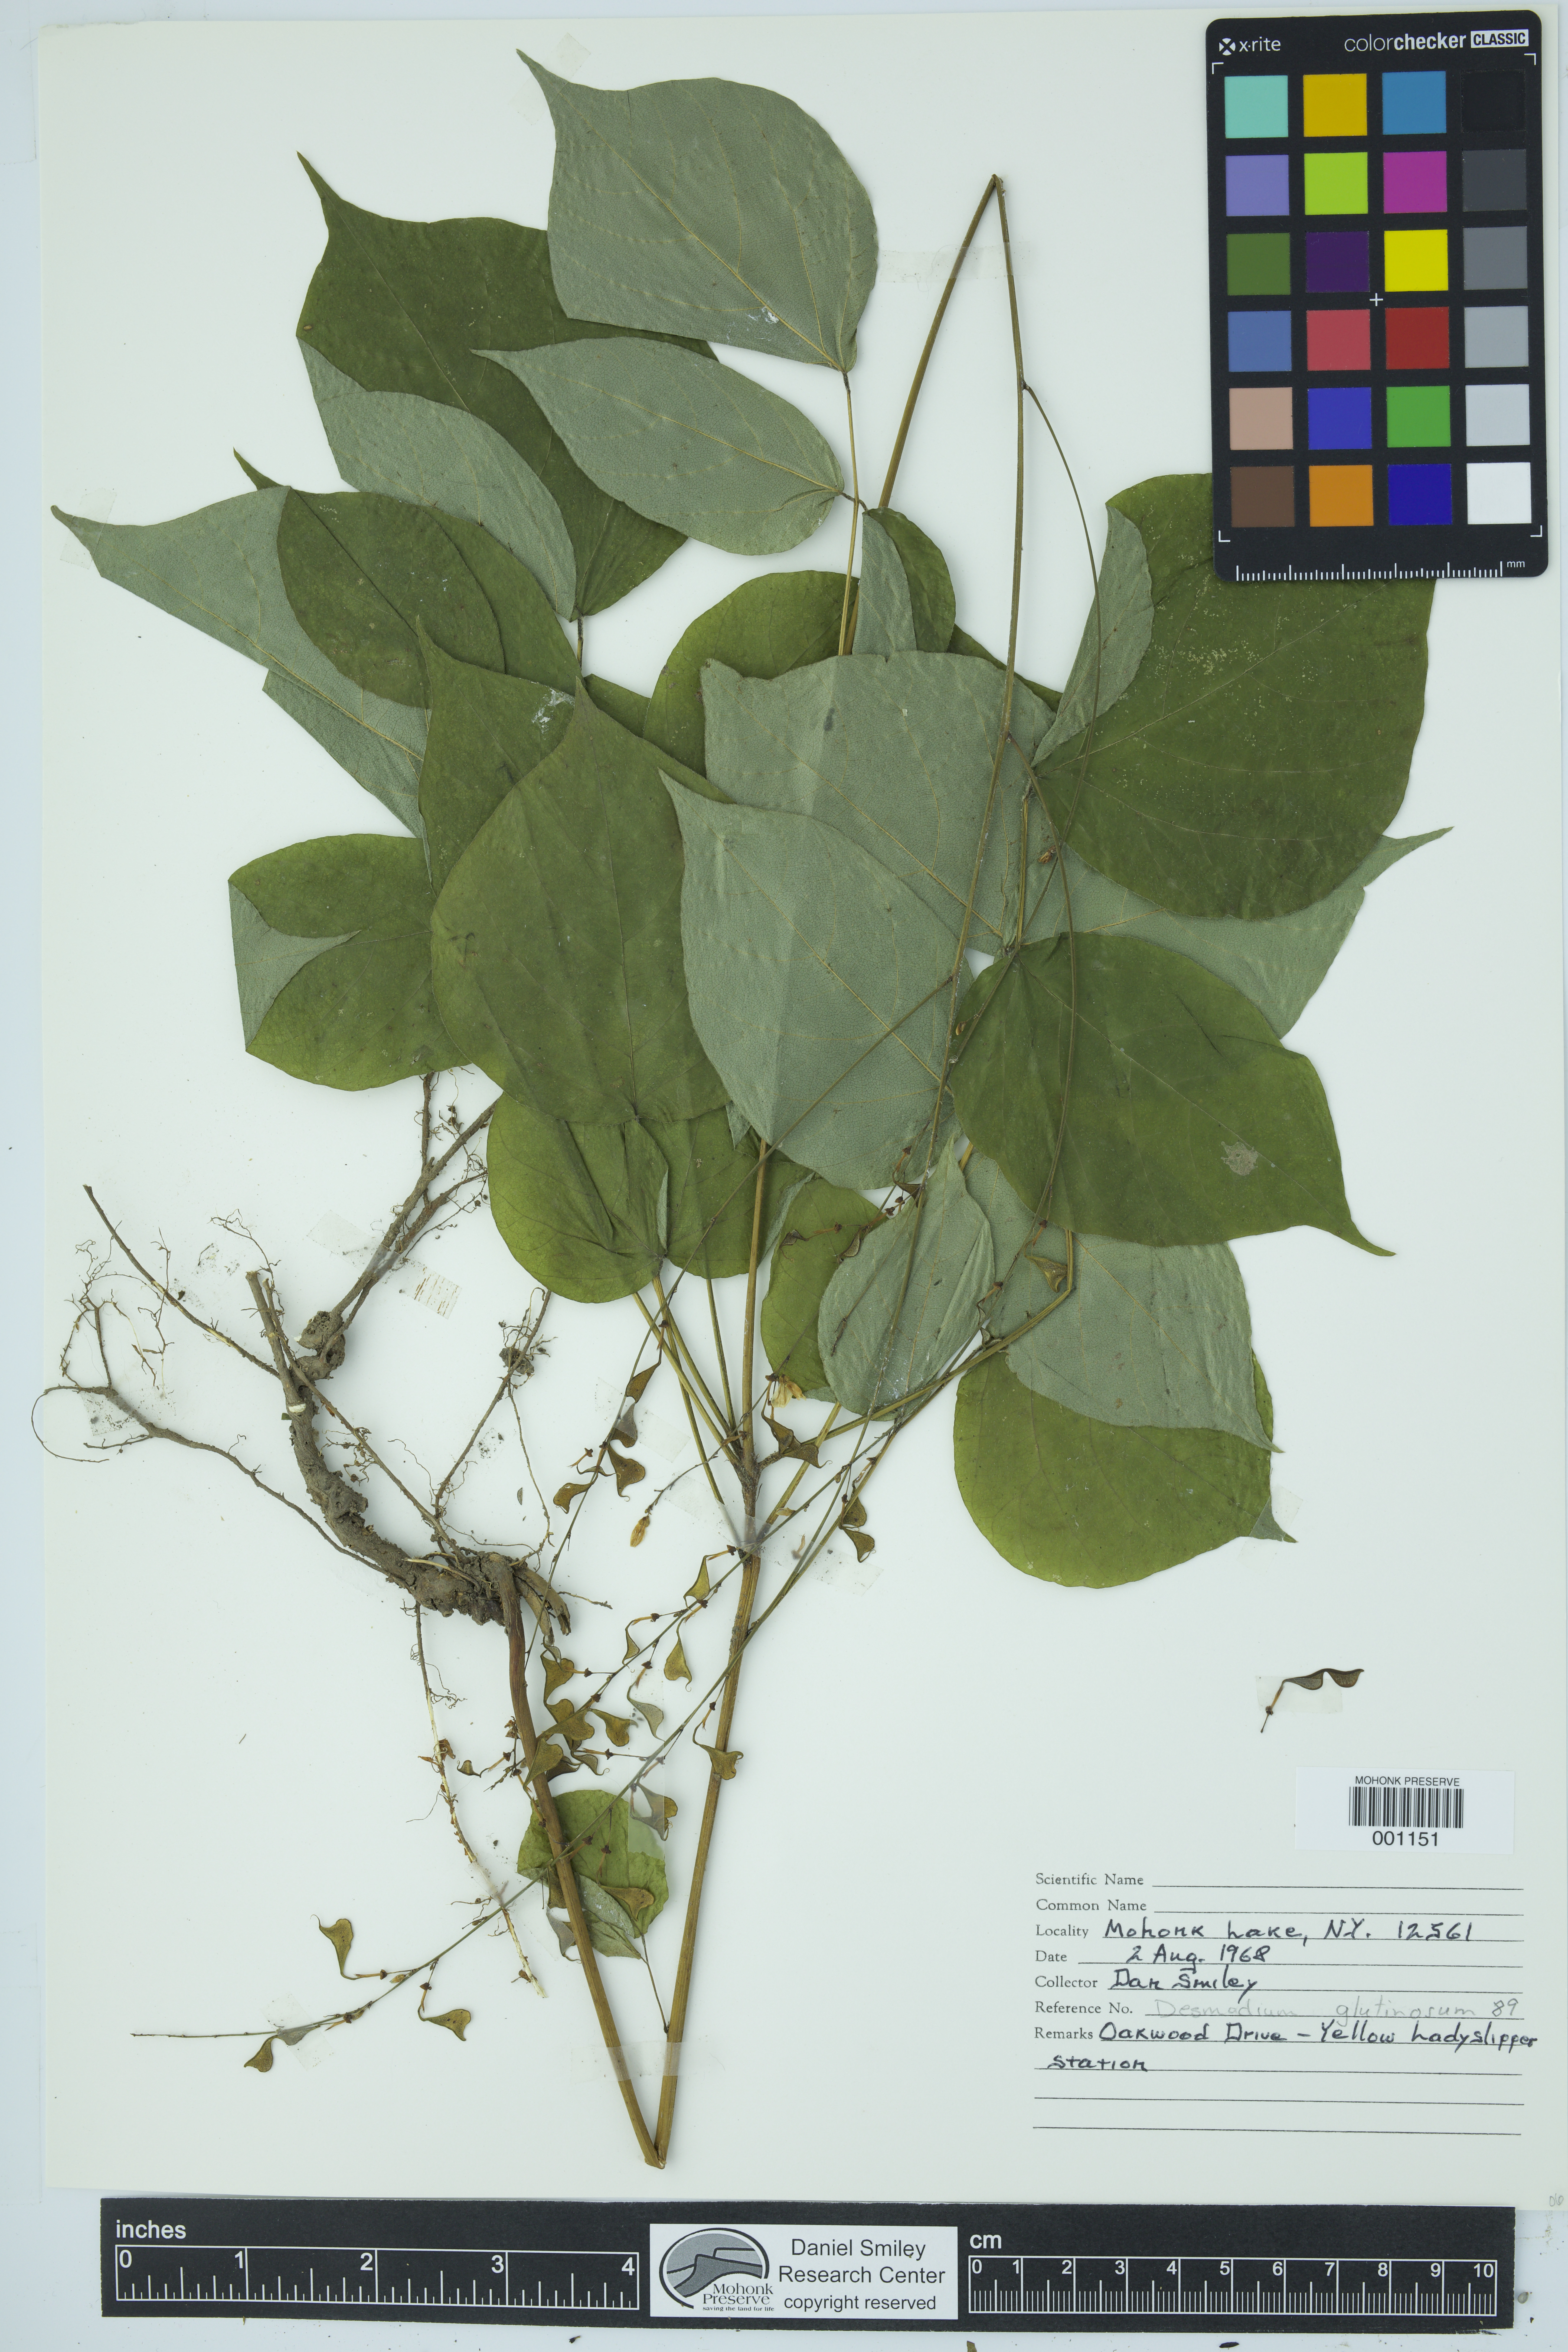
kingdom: Plantae
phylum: Tracheophyta
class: Magnoliopsida
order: Fabales
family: Fabaceae
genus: Hylodesmum
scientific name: Hylodesmum glutinosum
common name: Clustered-leaved tick-trefoil
